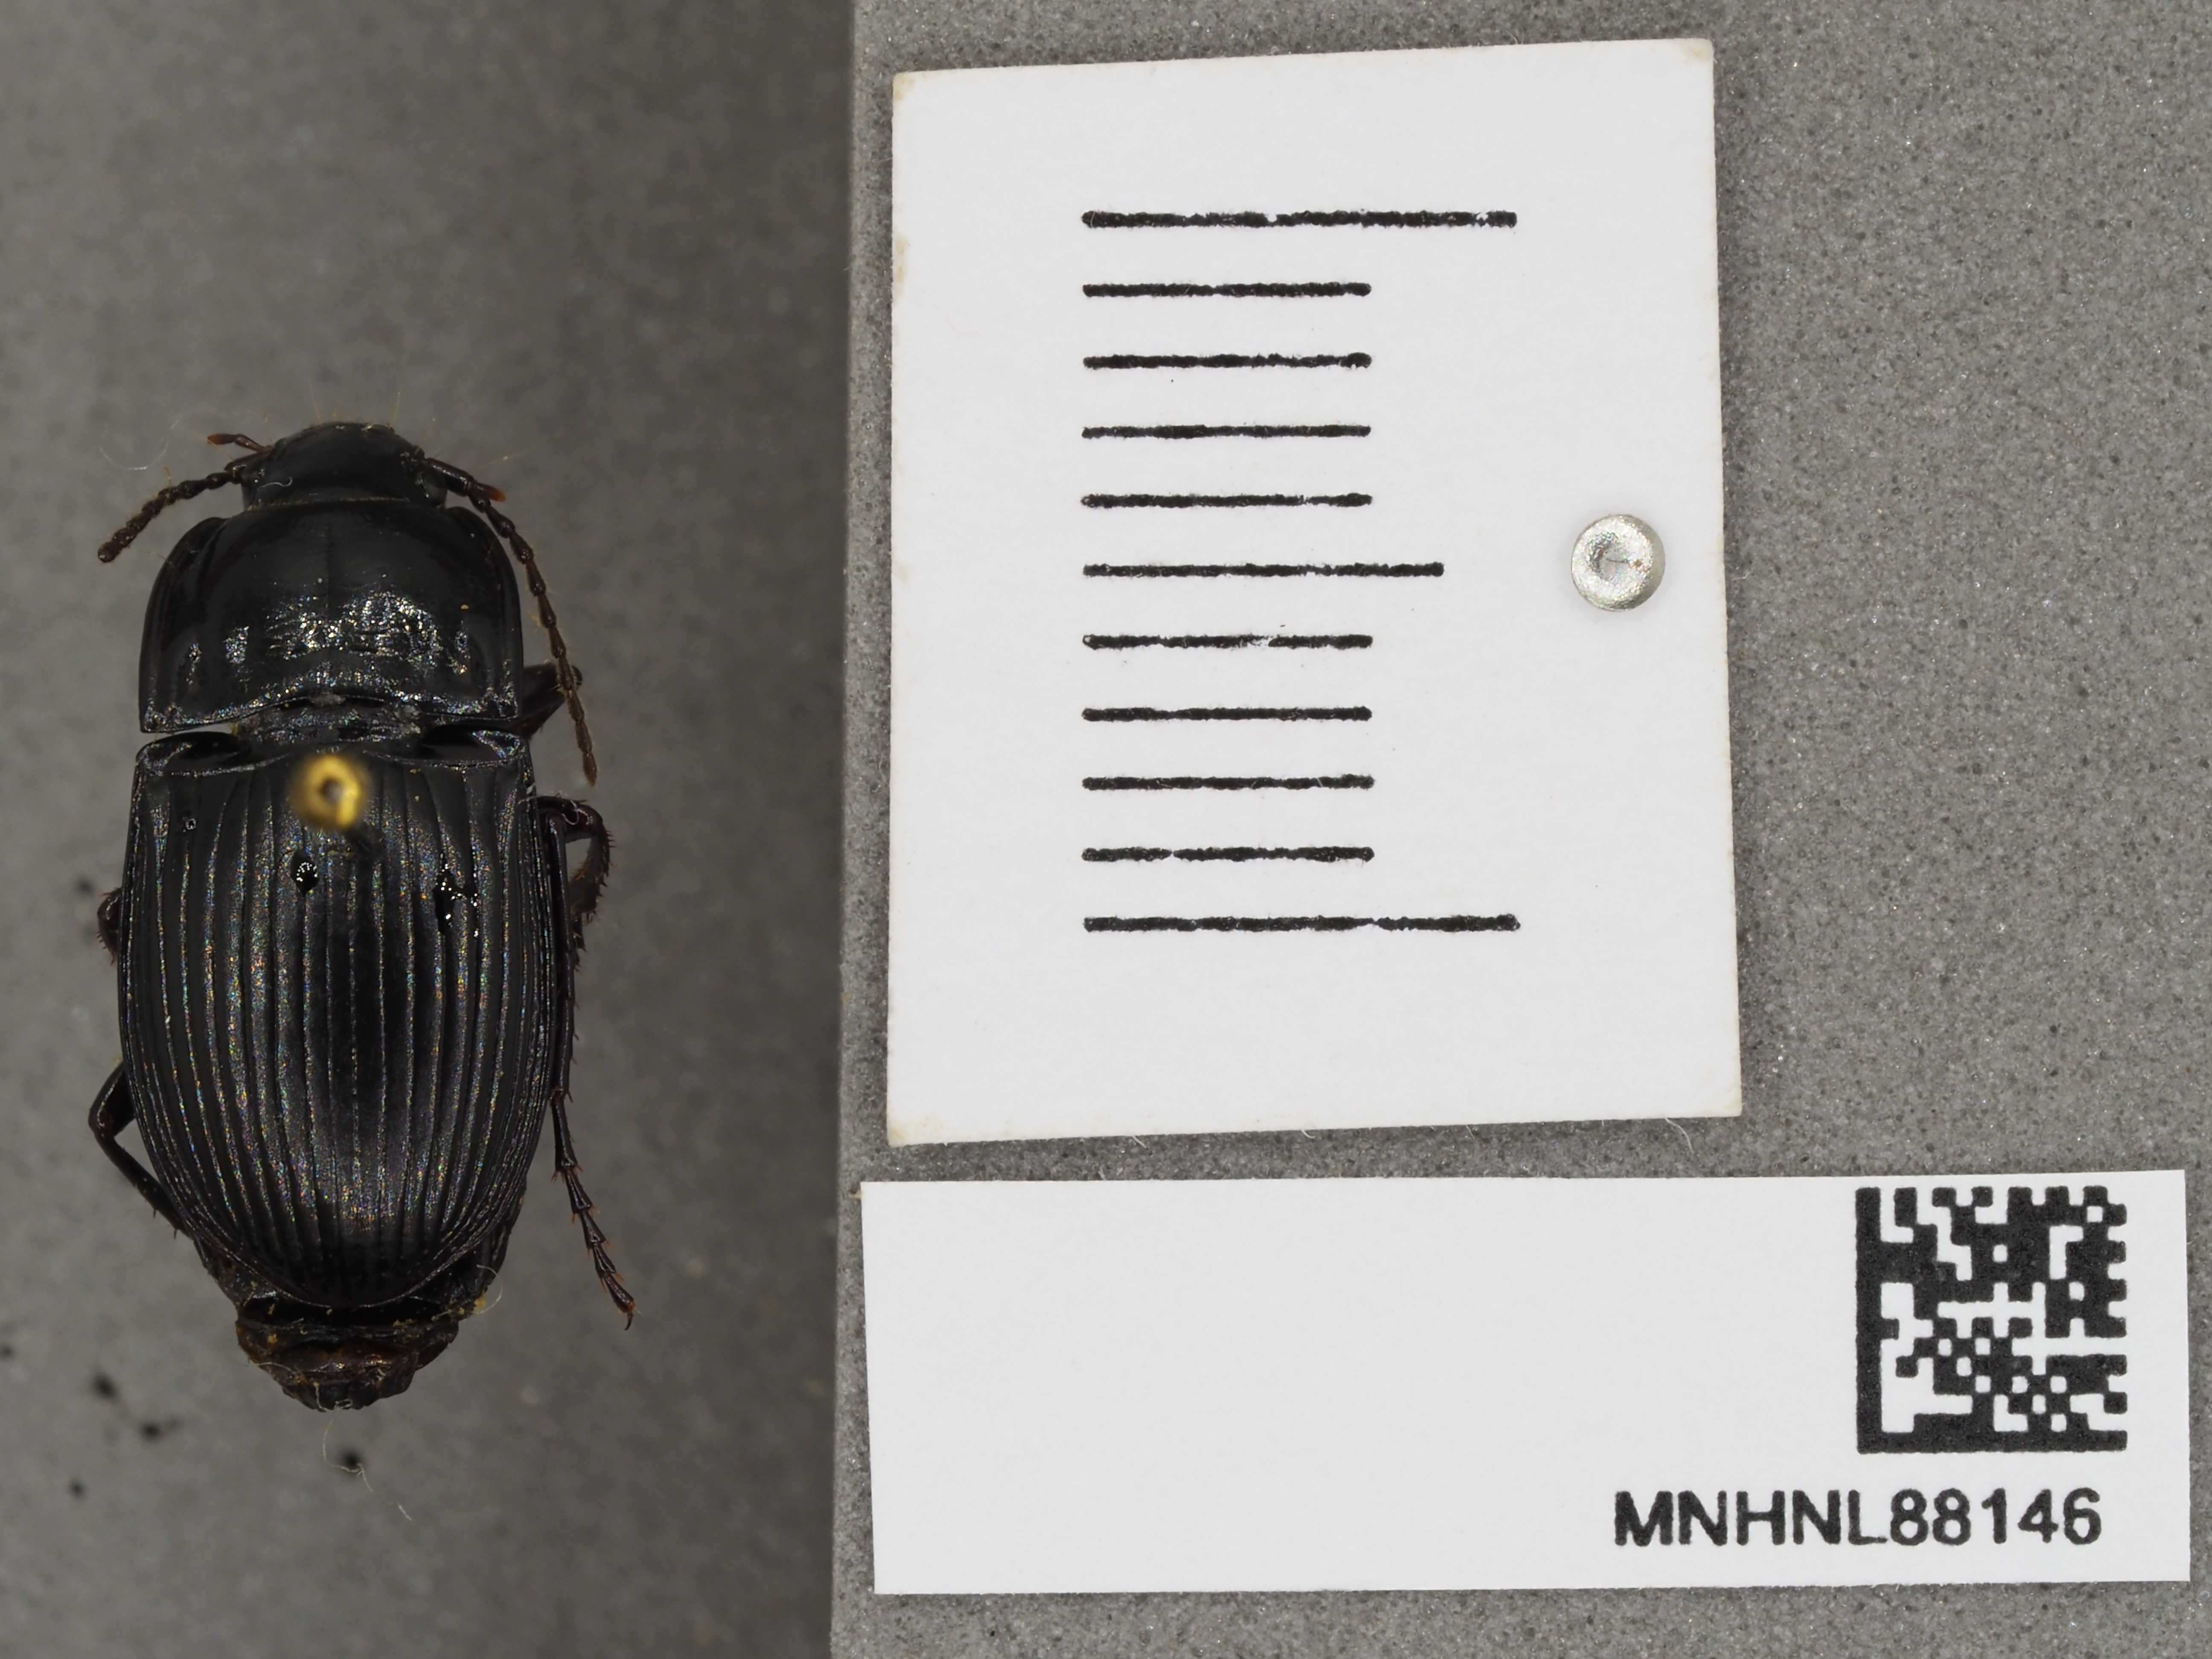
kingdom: Animalia
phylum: Arthropoda
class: Insecta
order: Coleoptera
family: Carabidae
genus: Abax
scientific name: Abax ovalis
